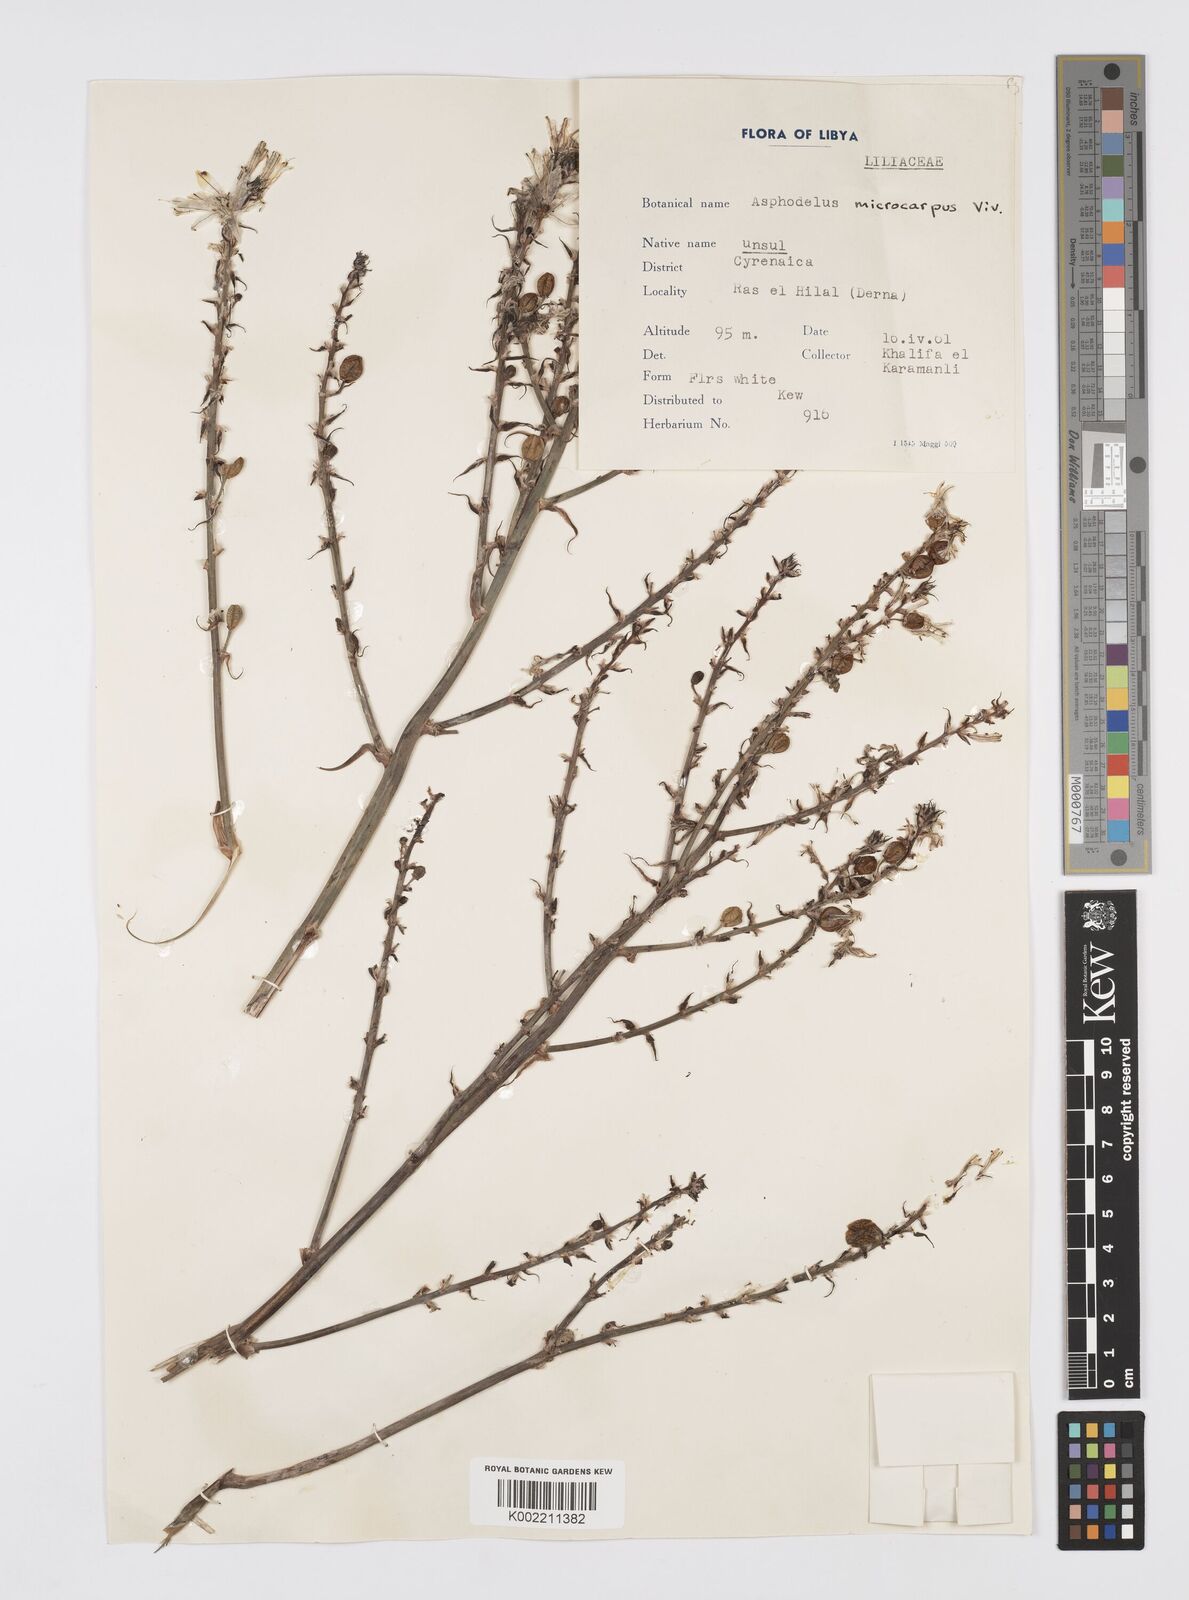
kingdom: Plantae
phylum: Tracheophyta
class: Liliopsida
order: Asparagales
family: Asphodelaceae
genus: Asphodelus
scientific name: Asphodelus ramosus
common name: Silverrod
